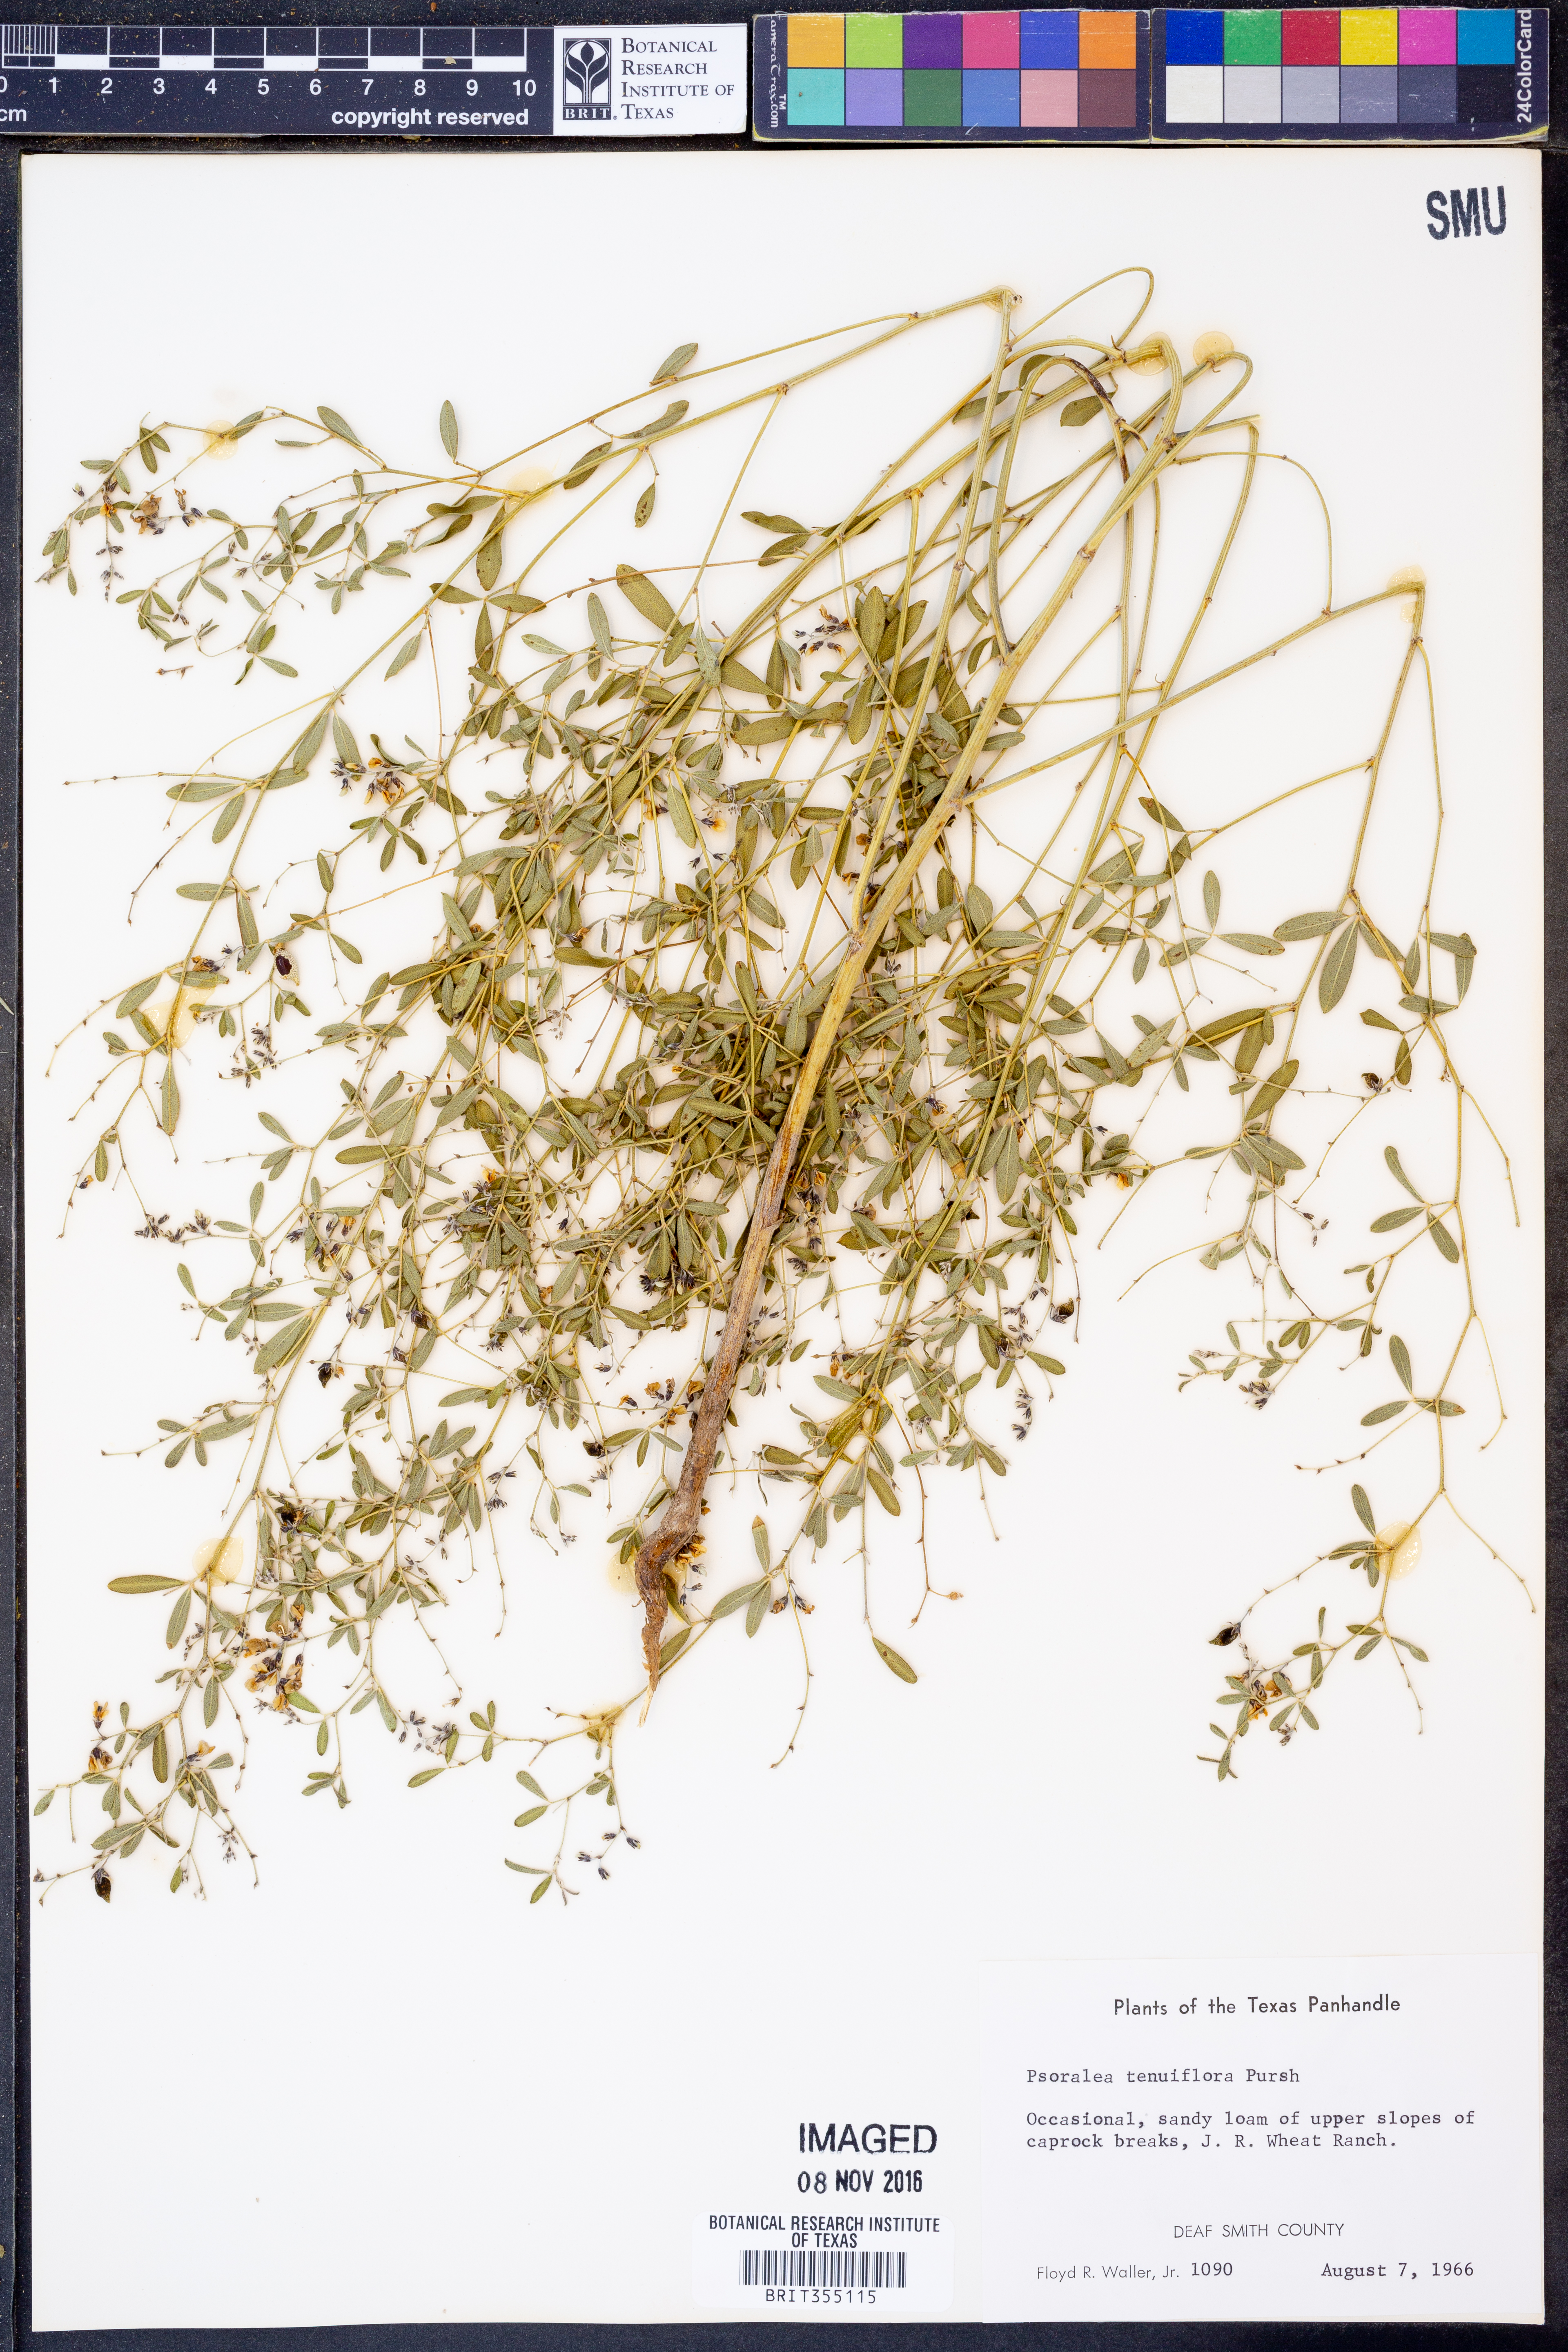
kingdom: Plantae
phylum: Tracheophyta
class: Magnoliopsida
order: Fabales
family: Fabaceae
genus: Pediomelum
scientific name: Pediomelum tenuiflorum
